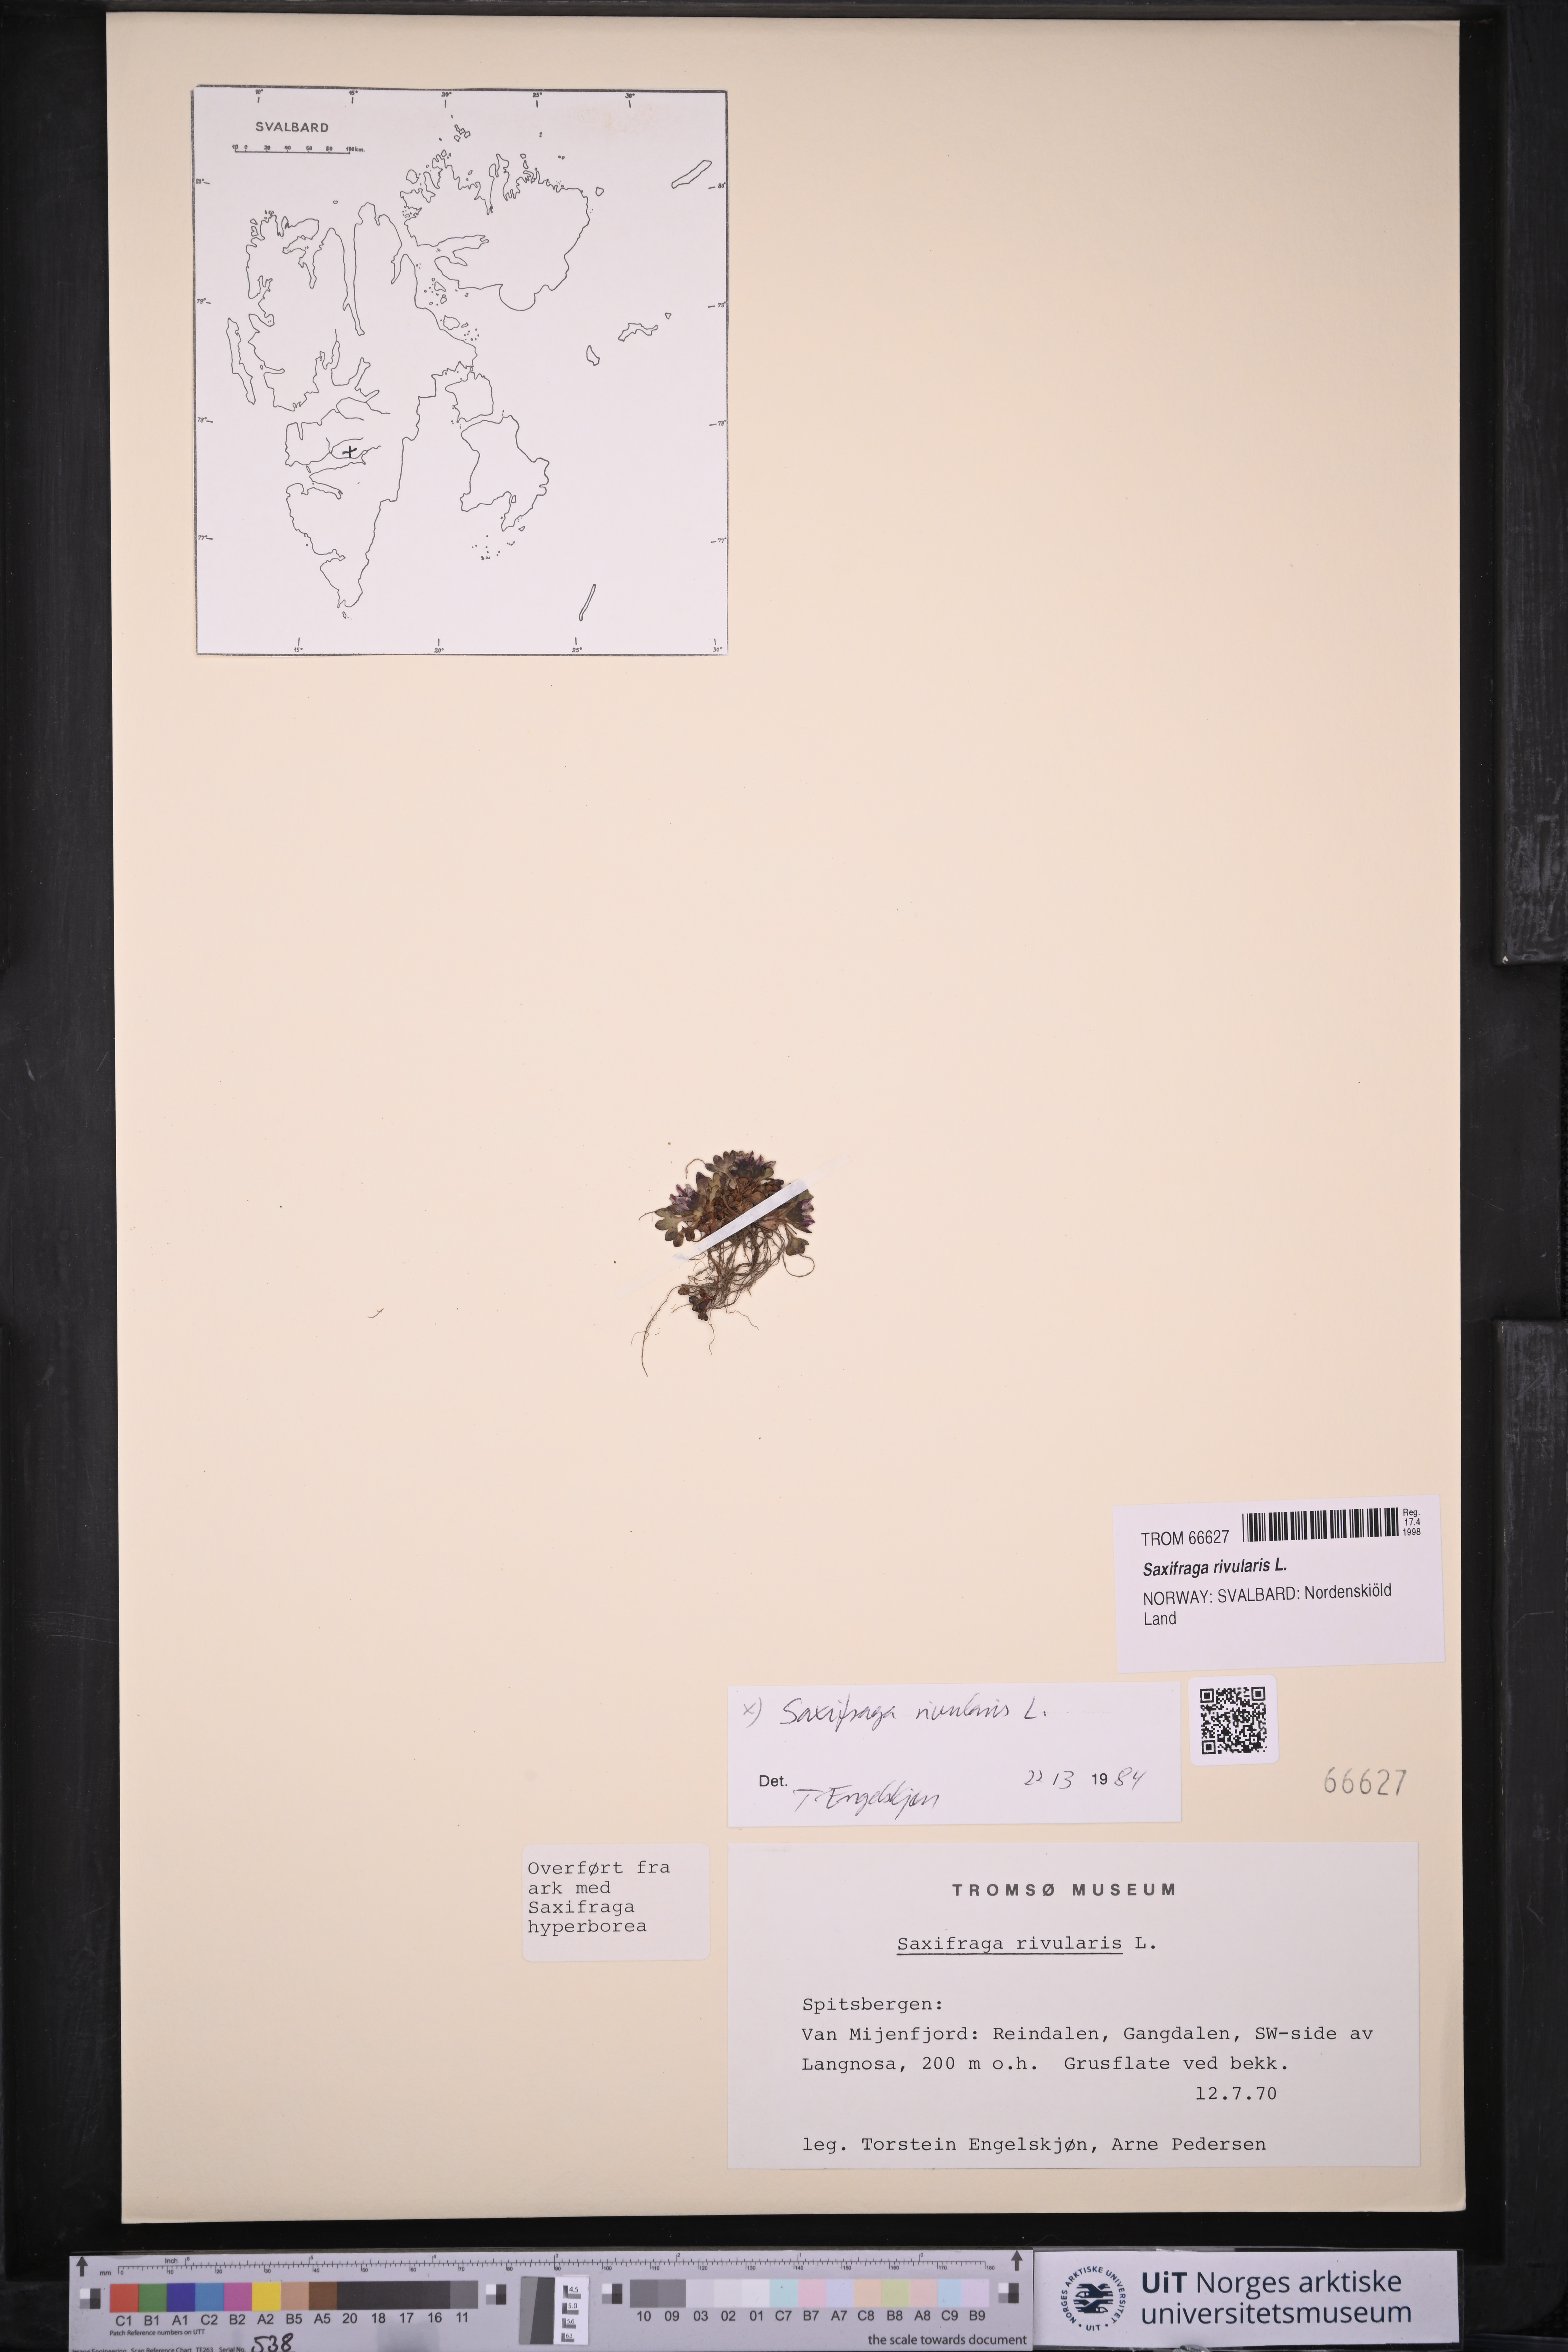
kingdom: Plantae
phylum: Tracheophyta
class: Magnoliopsida
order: Saxifragales
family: Saxifragaceae
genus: Saxifraga
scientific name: Saxifraga rivularis
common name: Highland saxifrage
